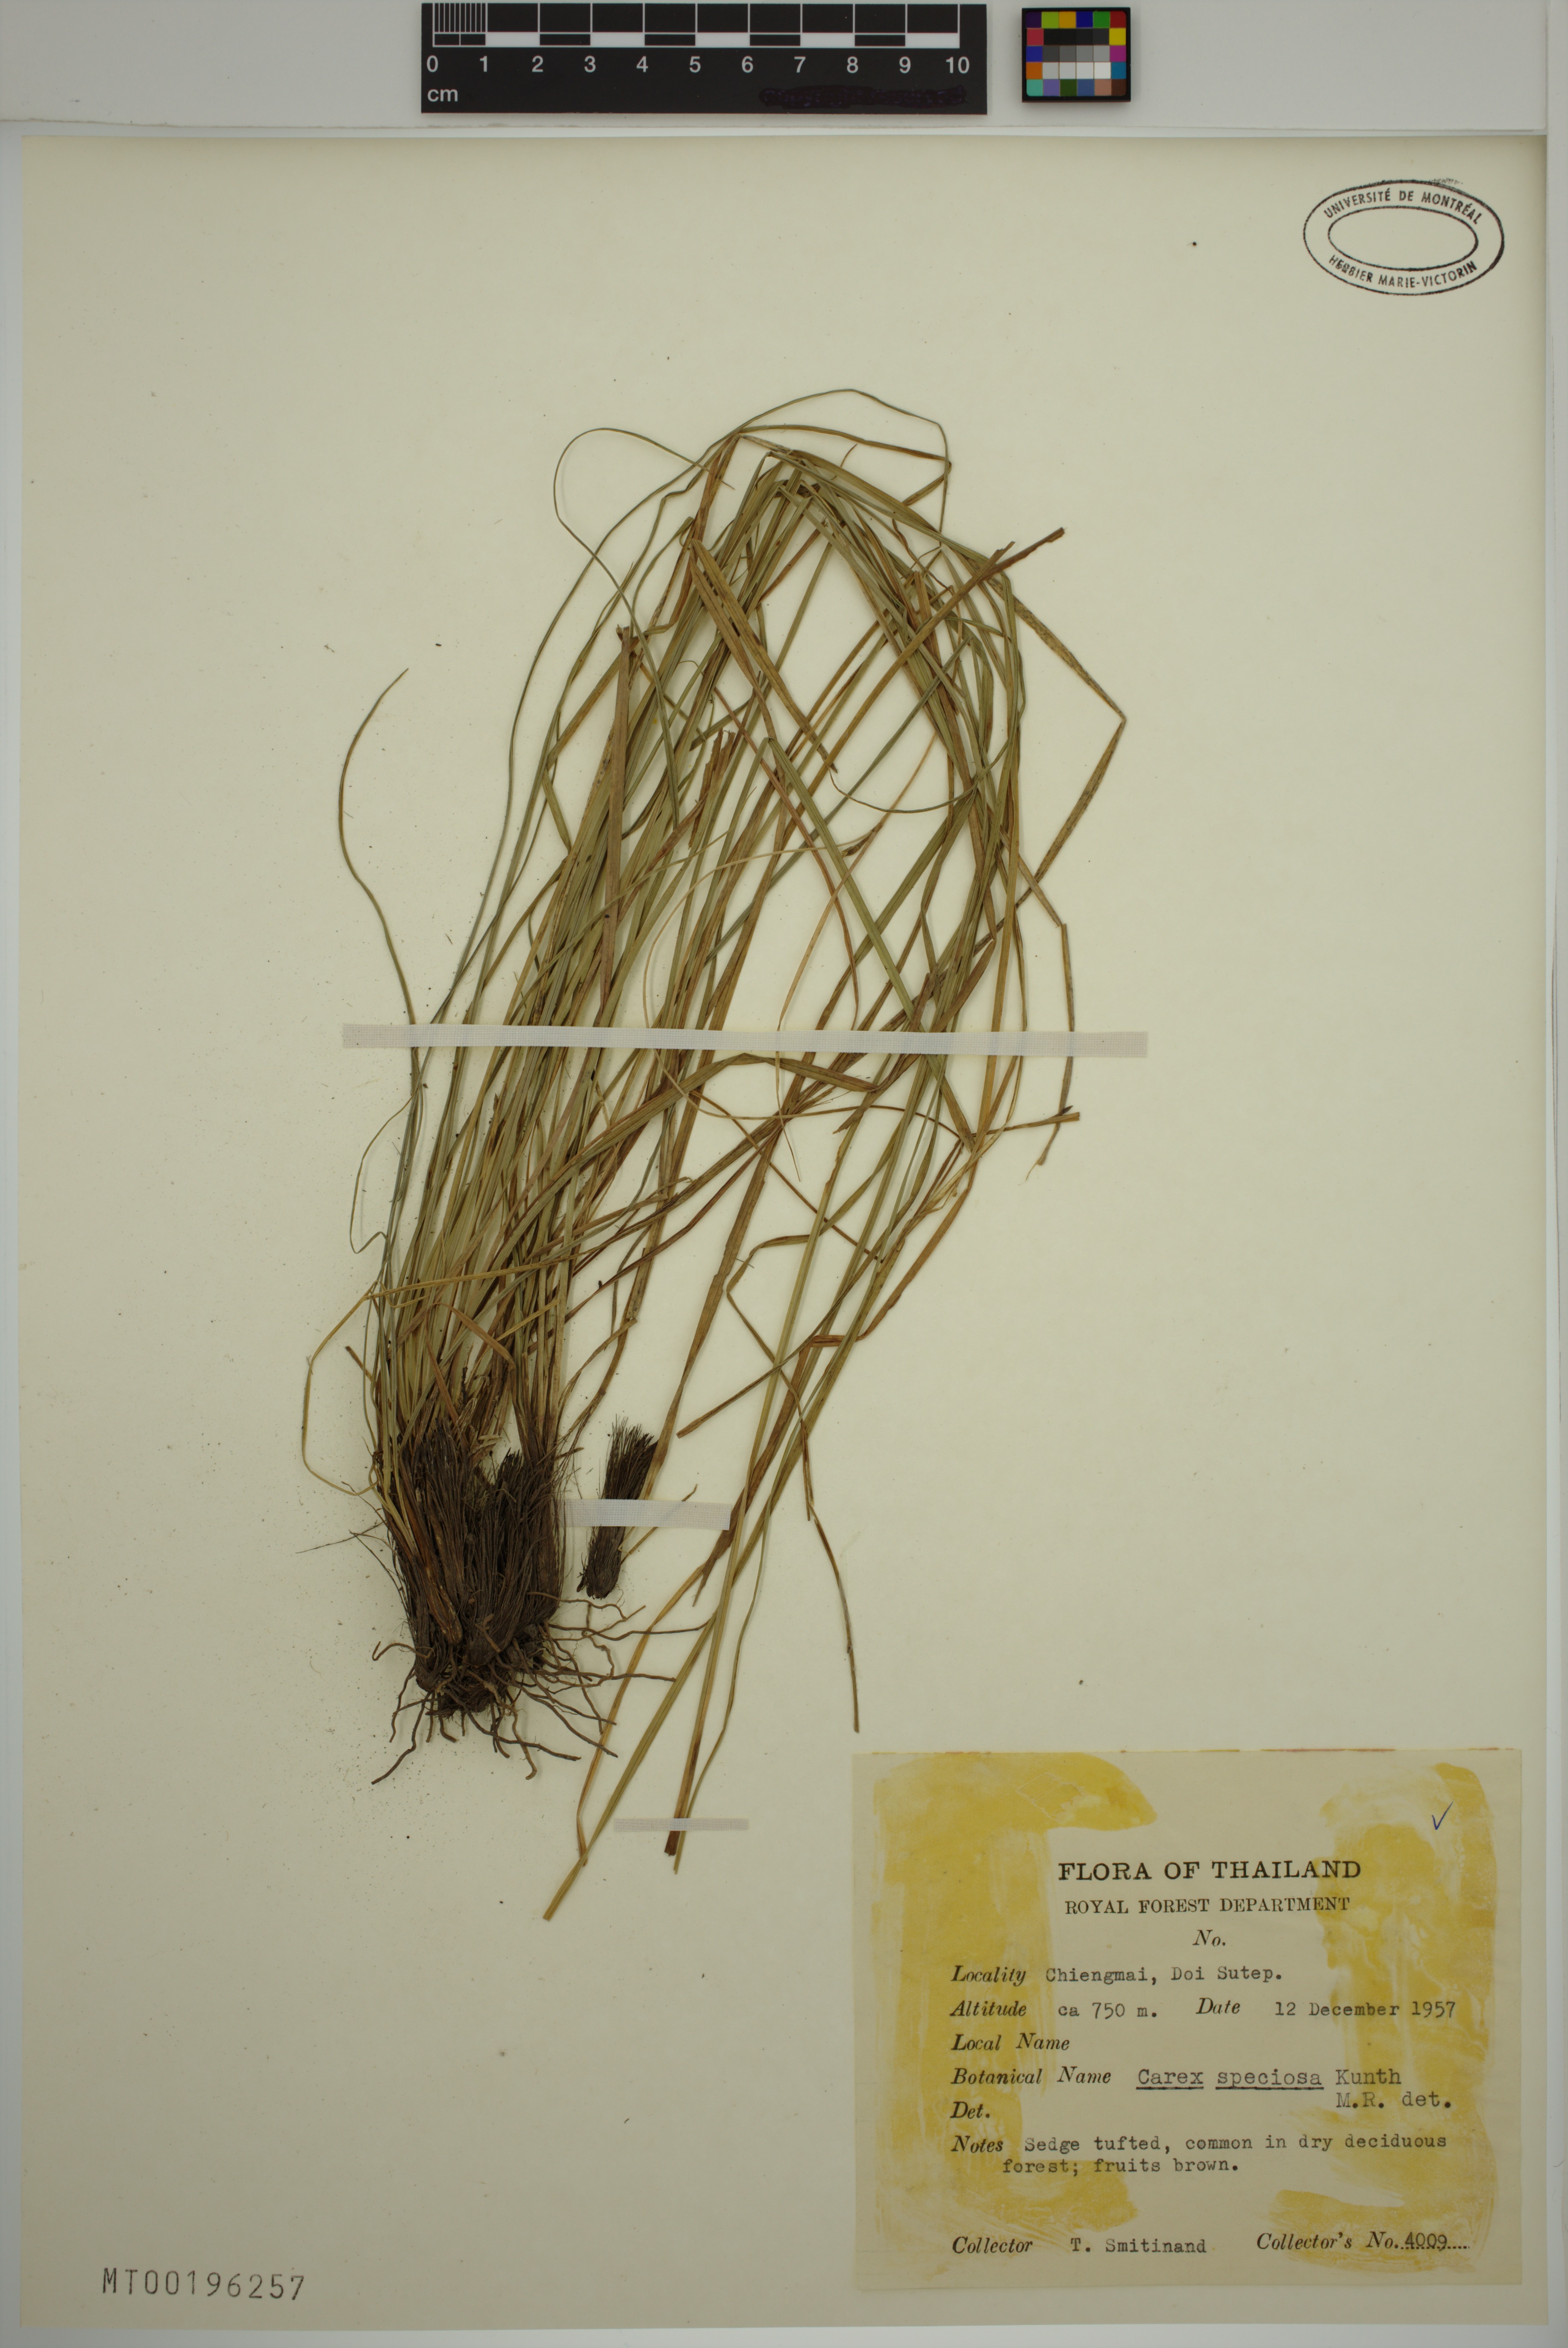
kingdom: Plantae
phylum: Tracheophyta
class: Liliopsida
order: Poales
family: Cyperaceae
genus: Carex
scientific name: Carex speciosa
